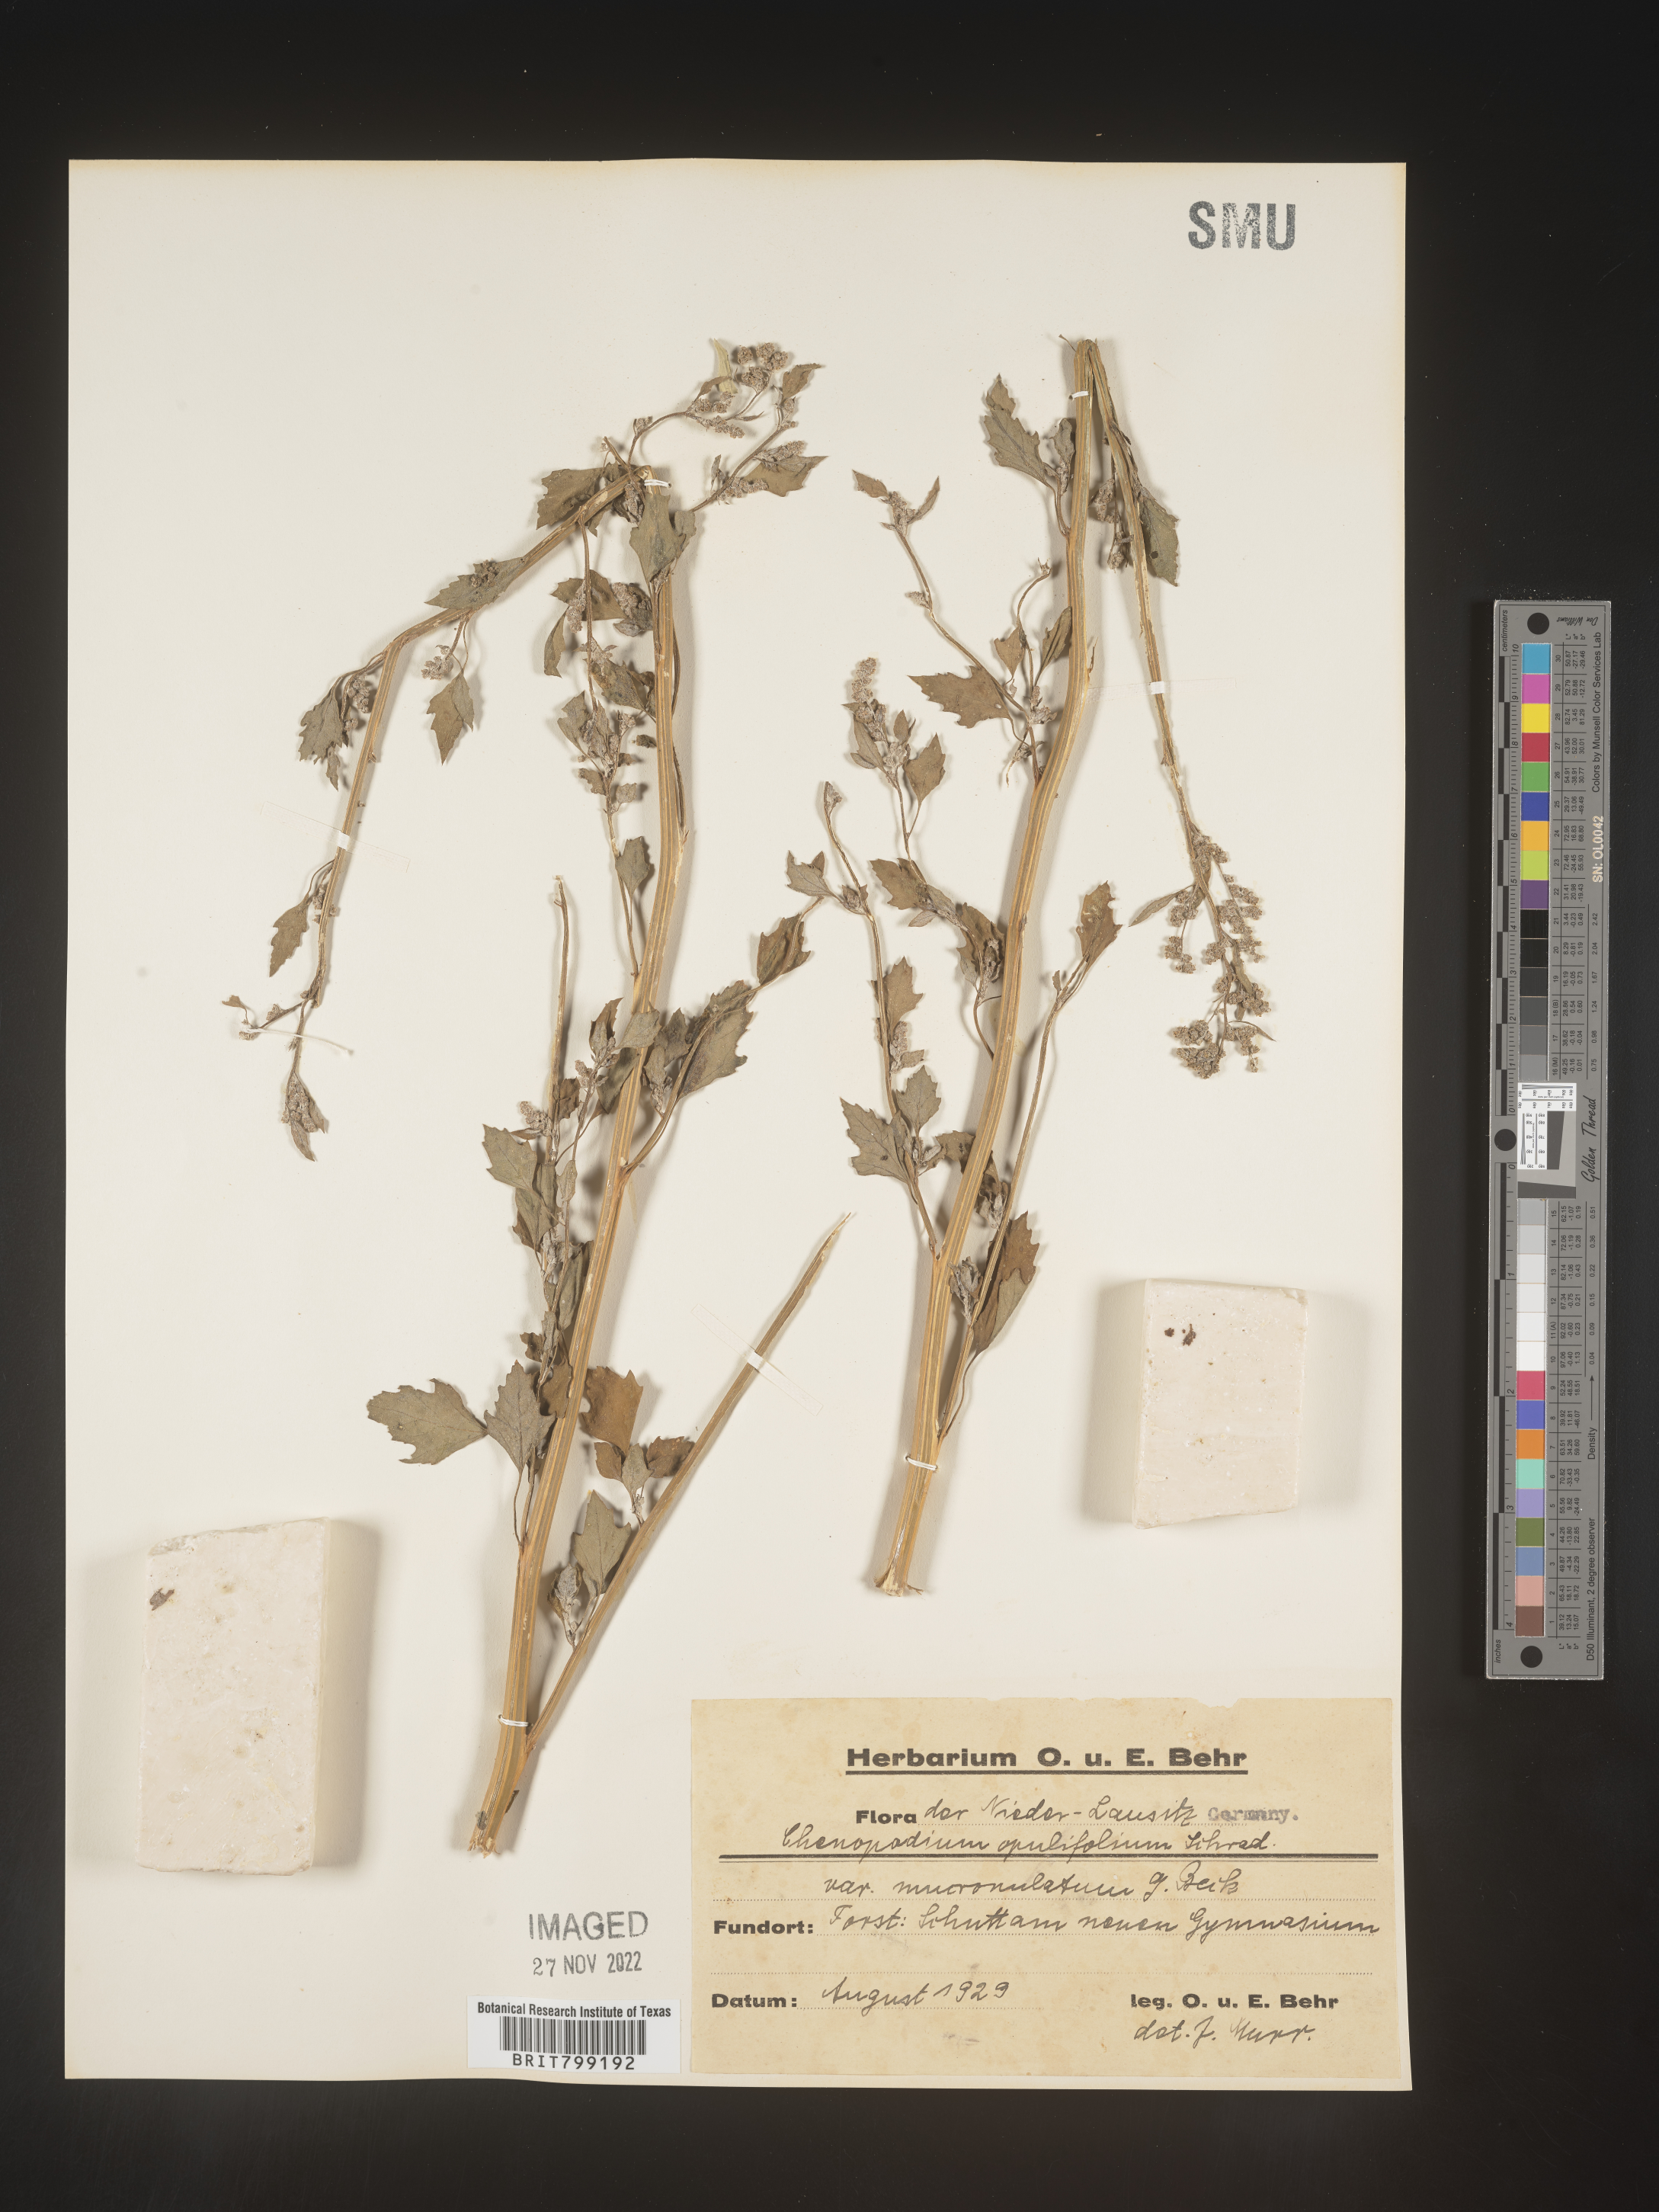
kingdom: Plantae
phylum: Tracheophyta
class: Magnoliopsida
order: Caryophyllales
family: Amaranthaceae
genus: Chenopodium
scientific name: Chenopodium opulifolium
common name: Grey goosefoot
